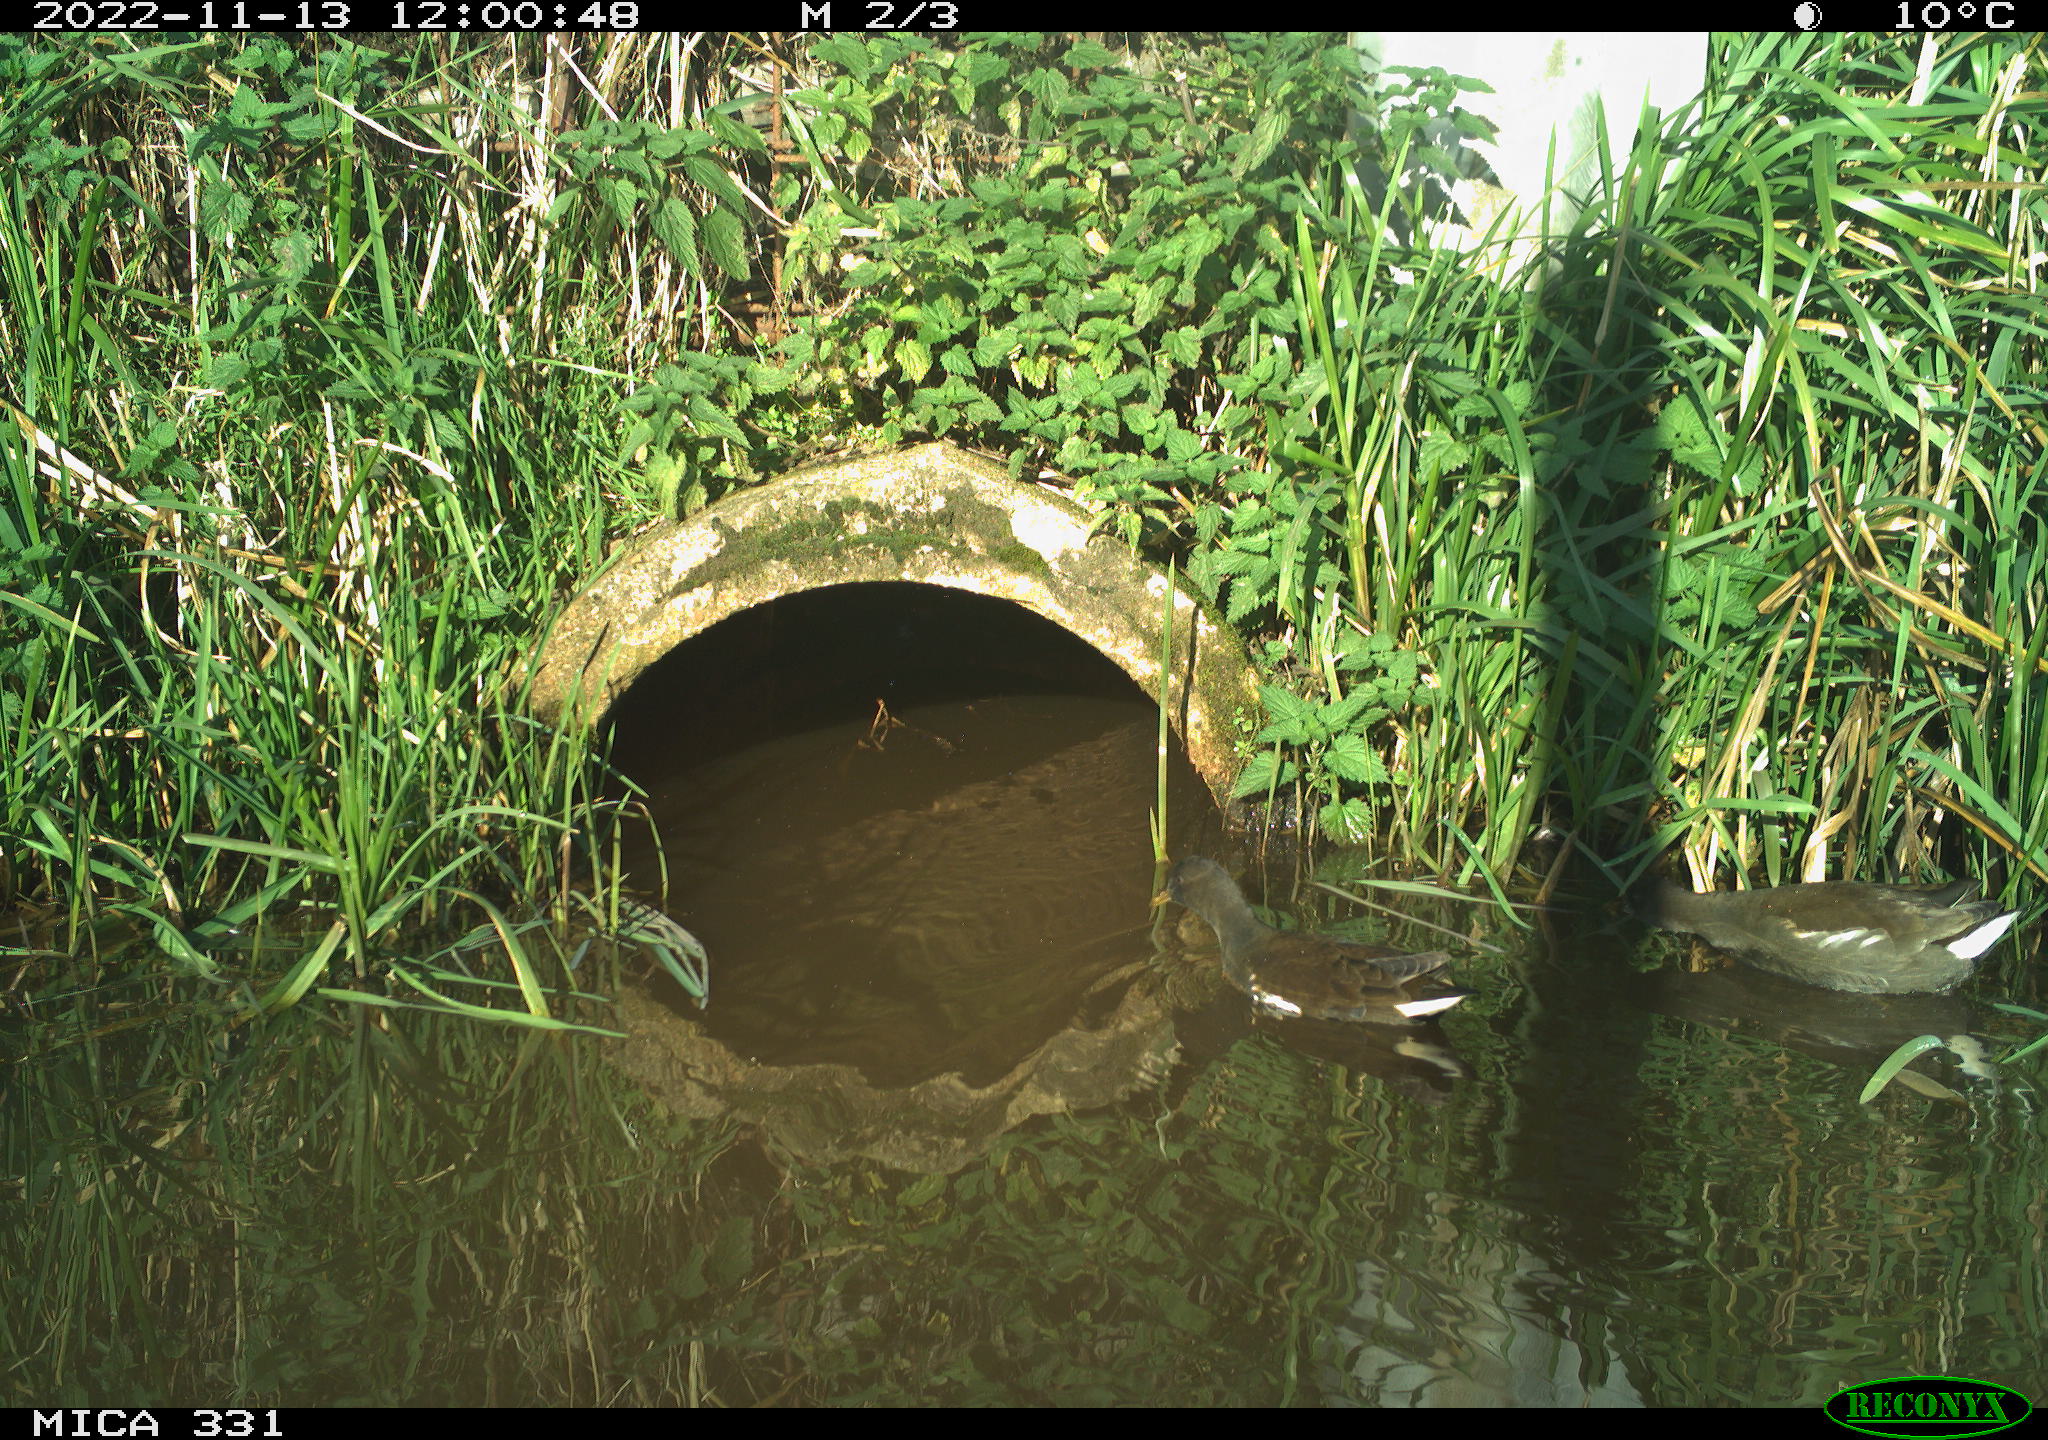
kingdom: Animalia
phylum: Chordata
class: Aves
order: Gruiformes
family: Rallidae
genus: Gallinula
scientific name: Gallinula chloropus
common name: Common moorhen
